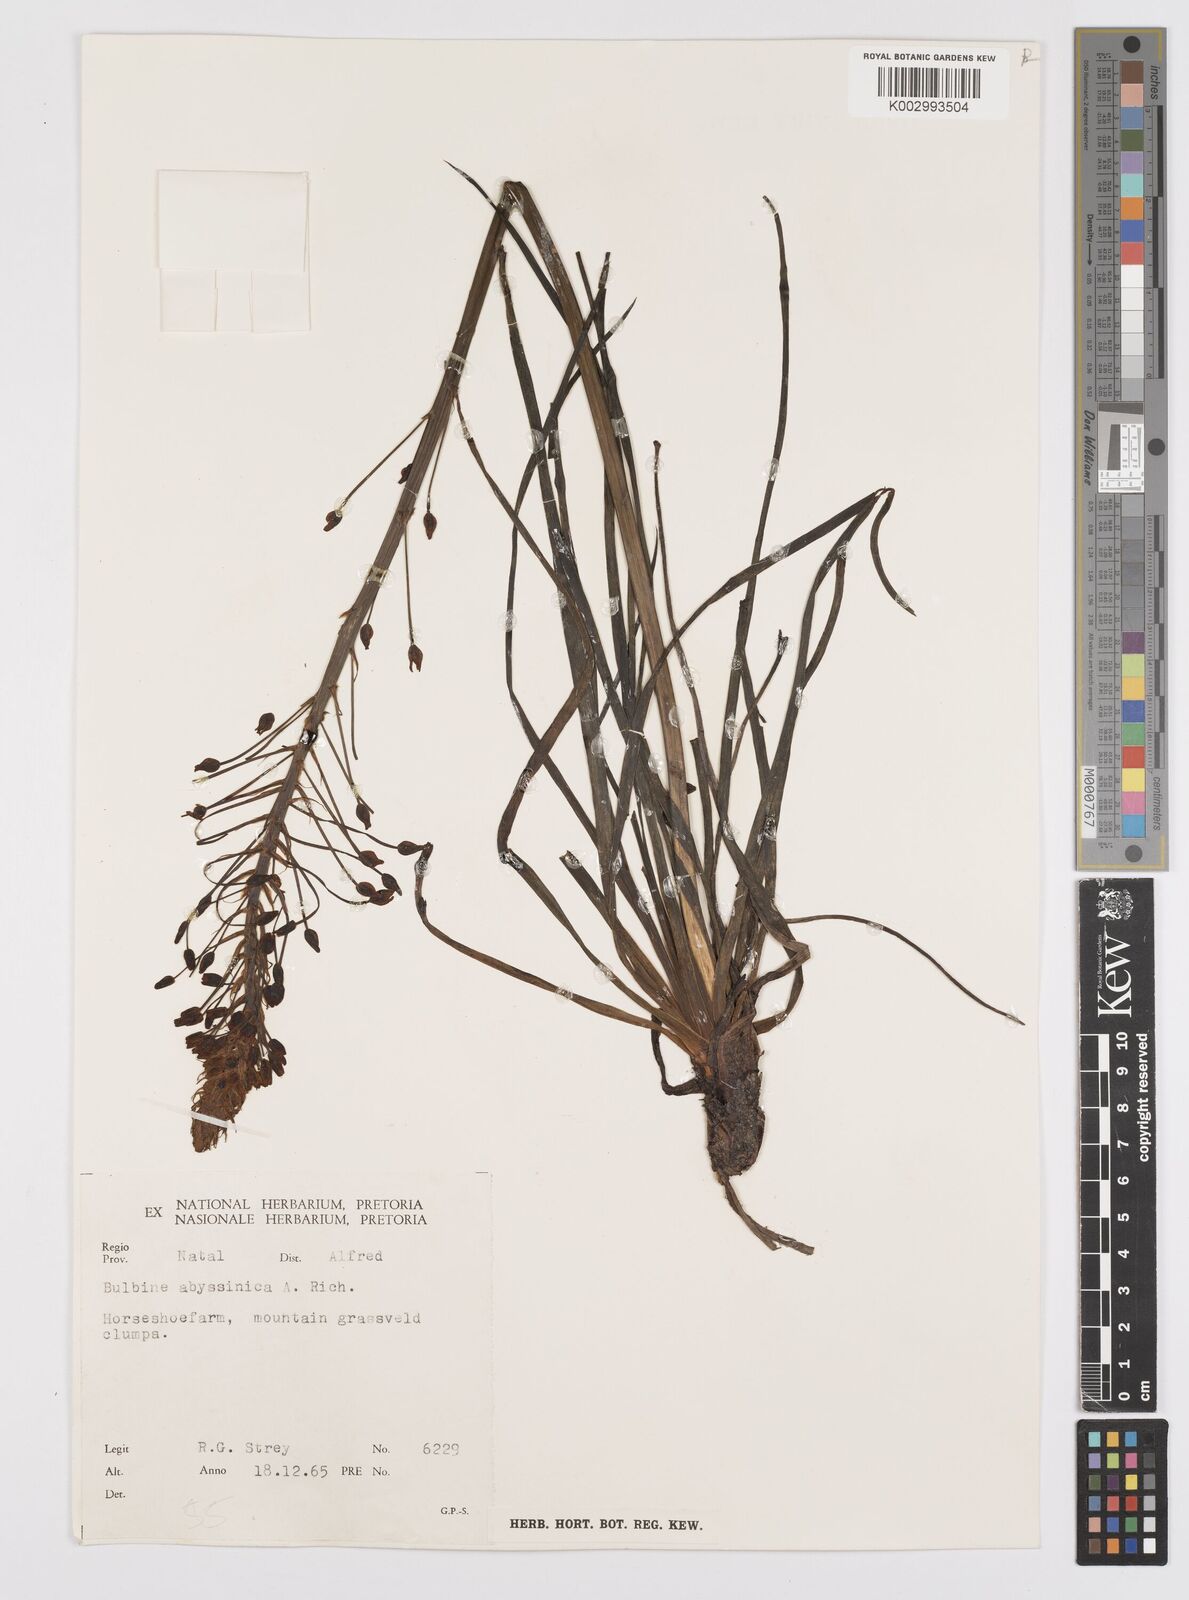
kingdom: Plantae
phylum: Tracheophyta
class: Liliopsida
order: Asparagales
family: Asphodelaceae
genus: Bulbine
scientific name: Bulbine abyssinica
